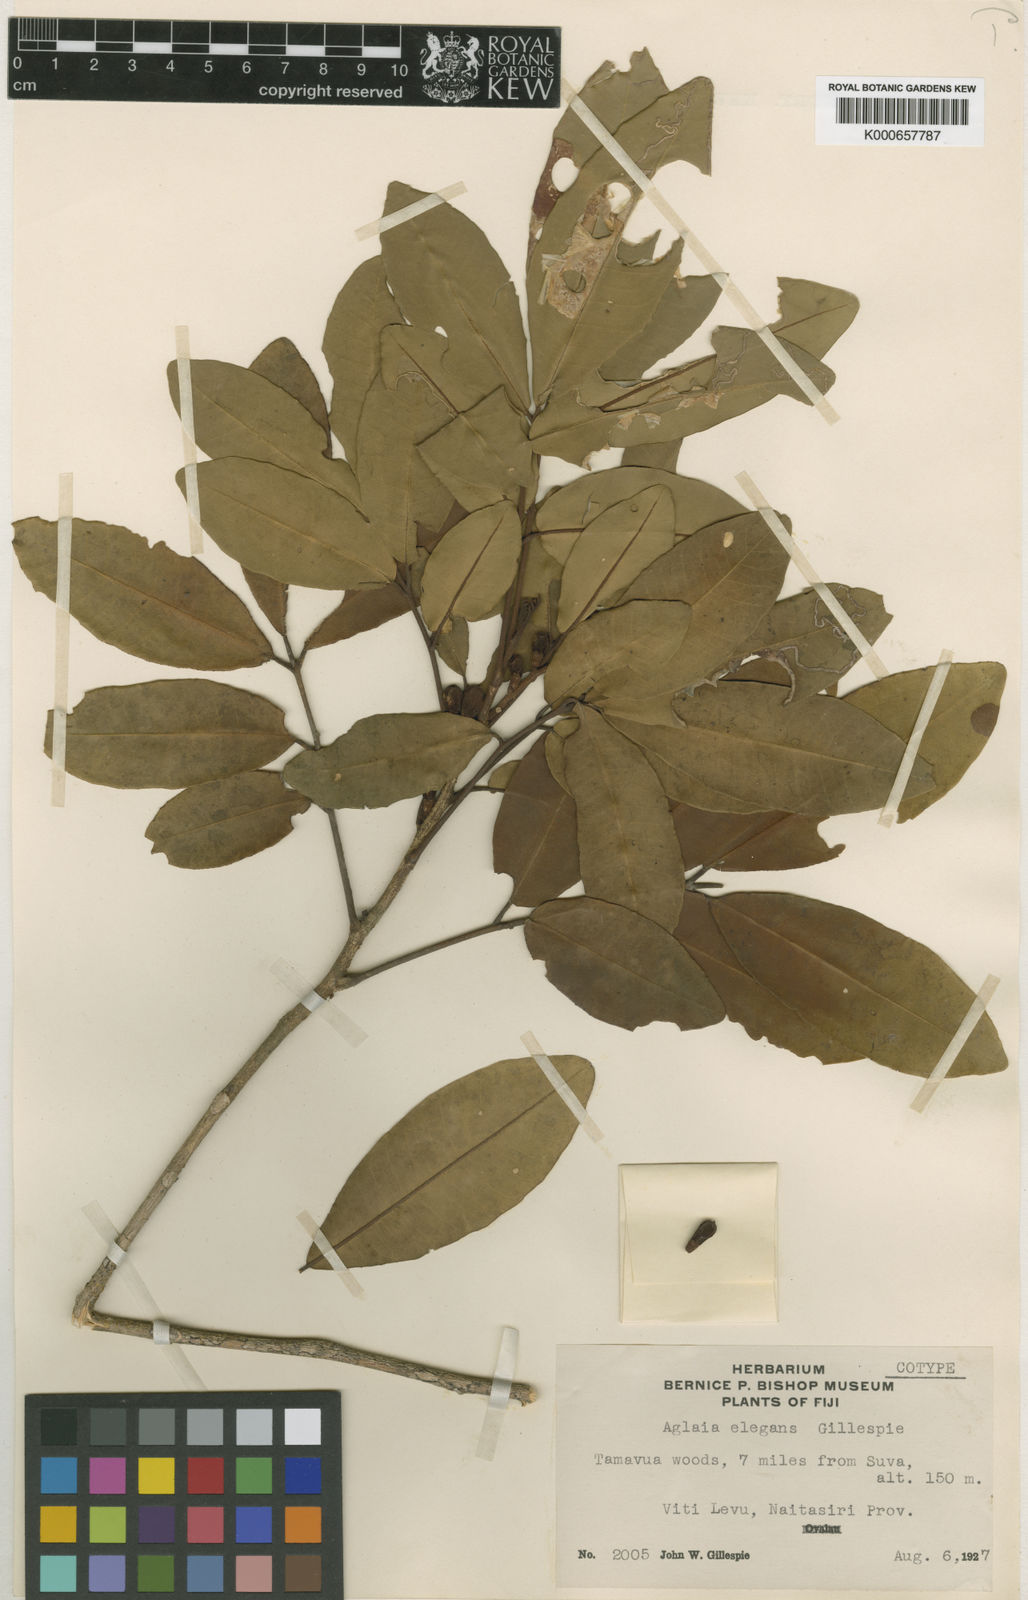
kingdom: Plantae
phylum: Tracheophyta
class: Magnoliopsida
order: Sapindales
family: Meliaceae
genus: Aglaia
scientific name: Aglaia basiphylla
